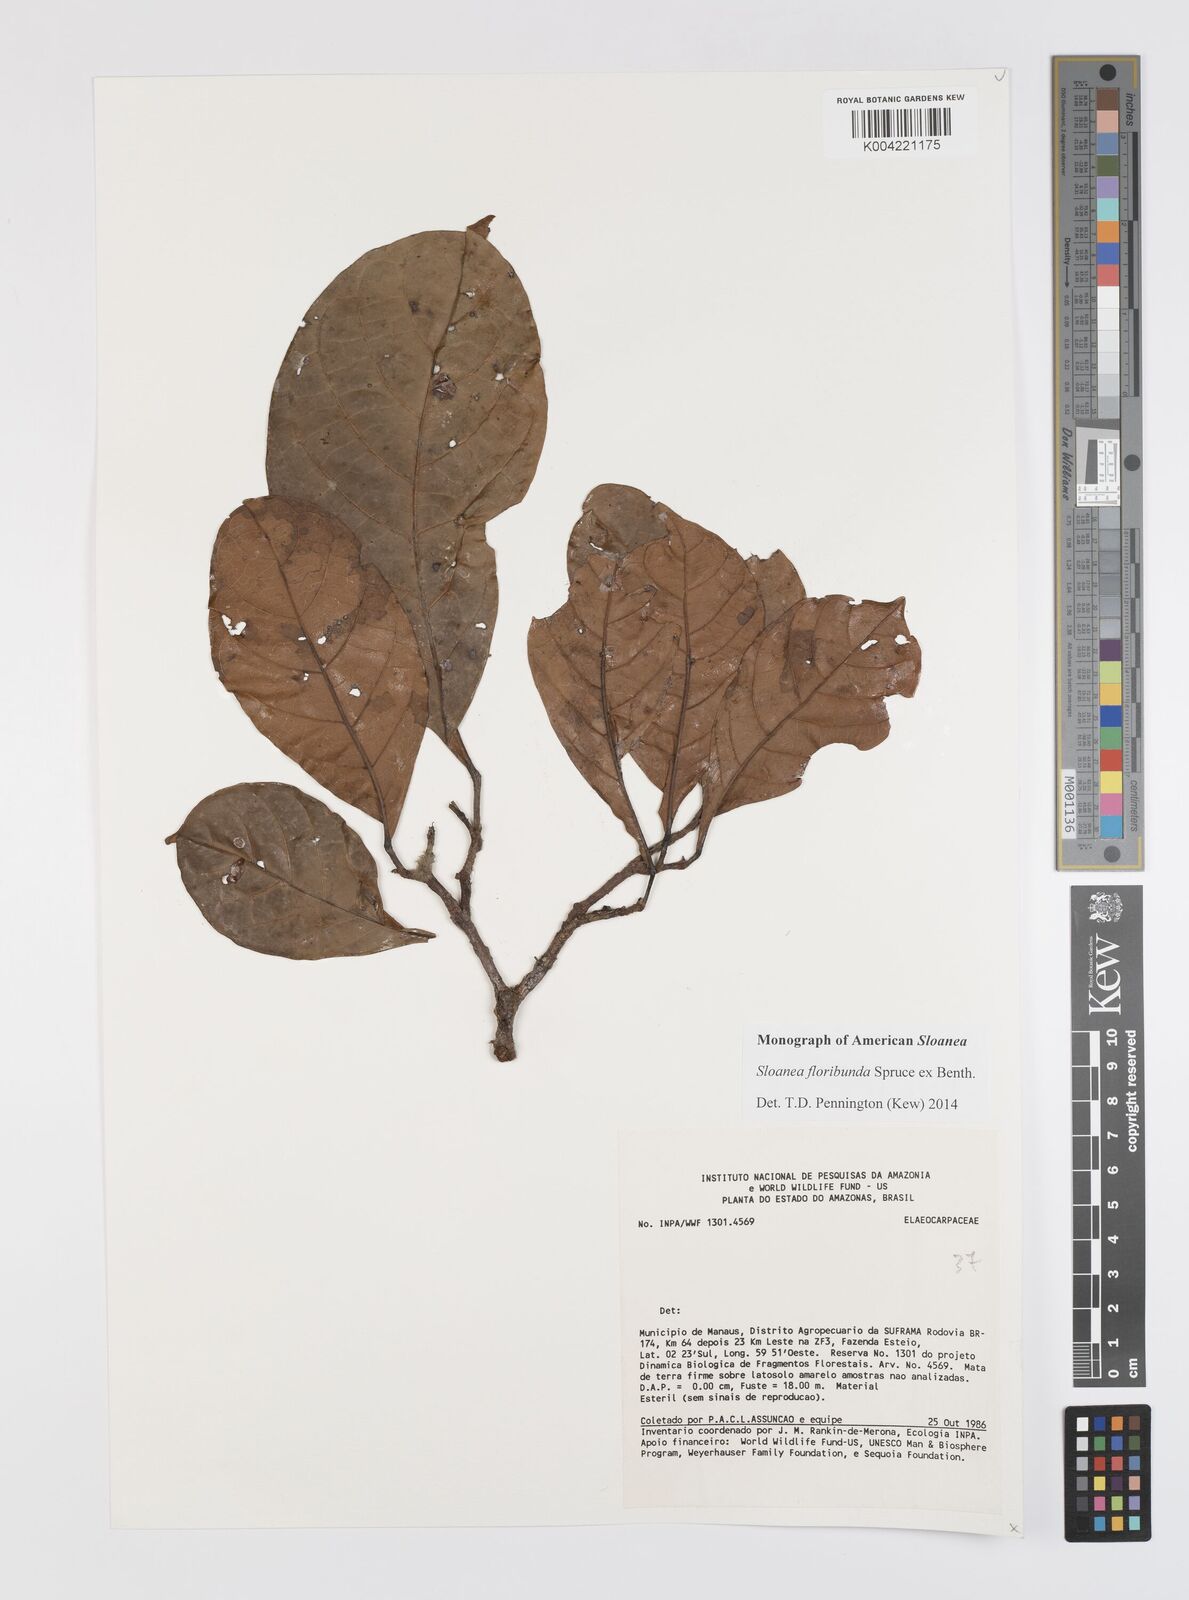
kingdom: Plantae
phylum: Tracheophyta
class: Magnoliopsida
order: Oxalidales
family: Elaeocarpaceae
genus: Sloanea
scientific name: Sloanea floribunda
